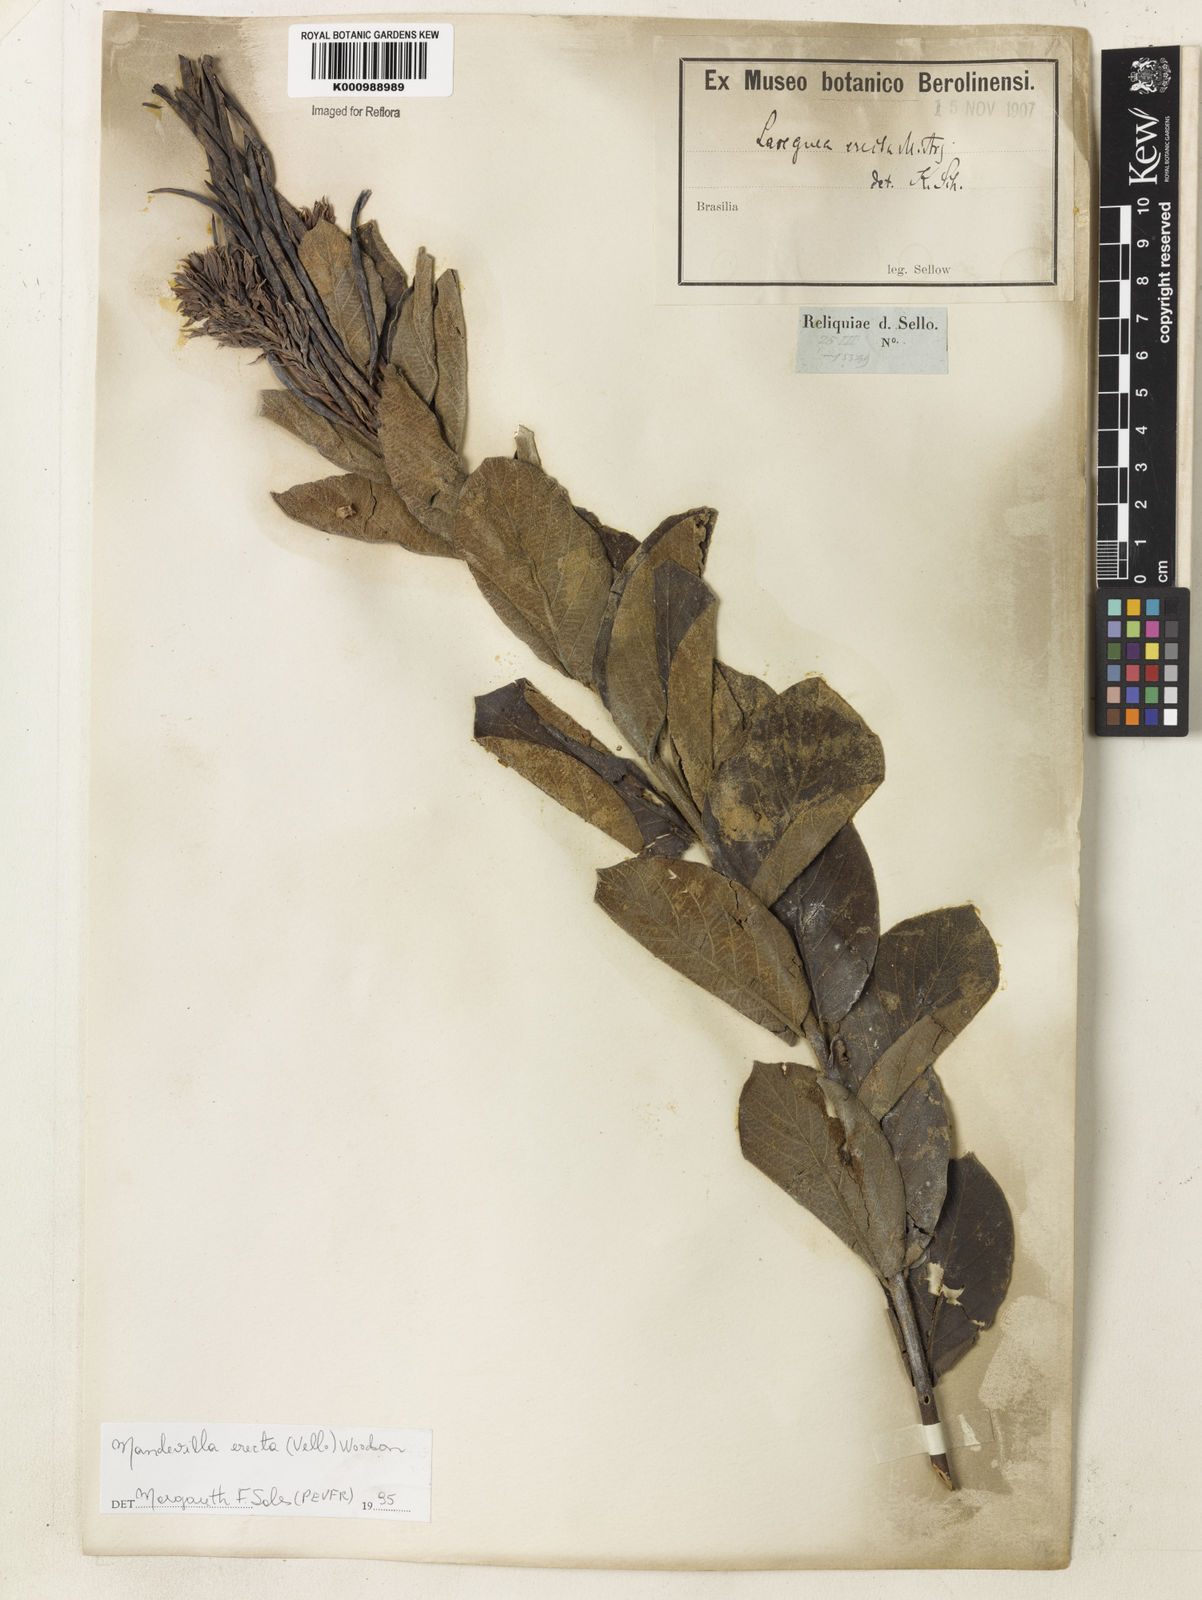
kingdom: Plantae
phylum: Tracheophyta
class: Magnoliopsida
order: Gentianales
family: Apocynaceae
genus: Mandevilla
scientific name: Mandevilla emarginata
